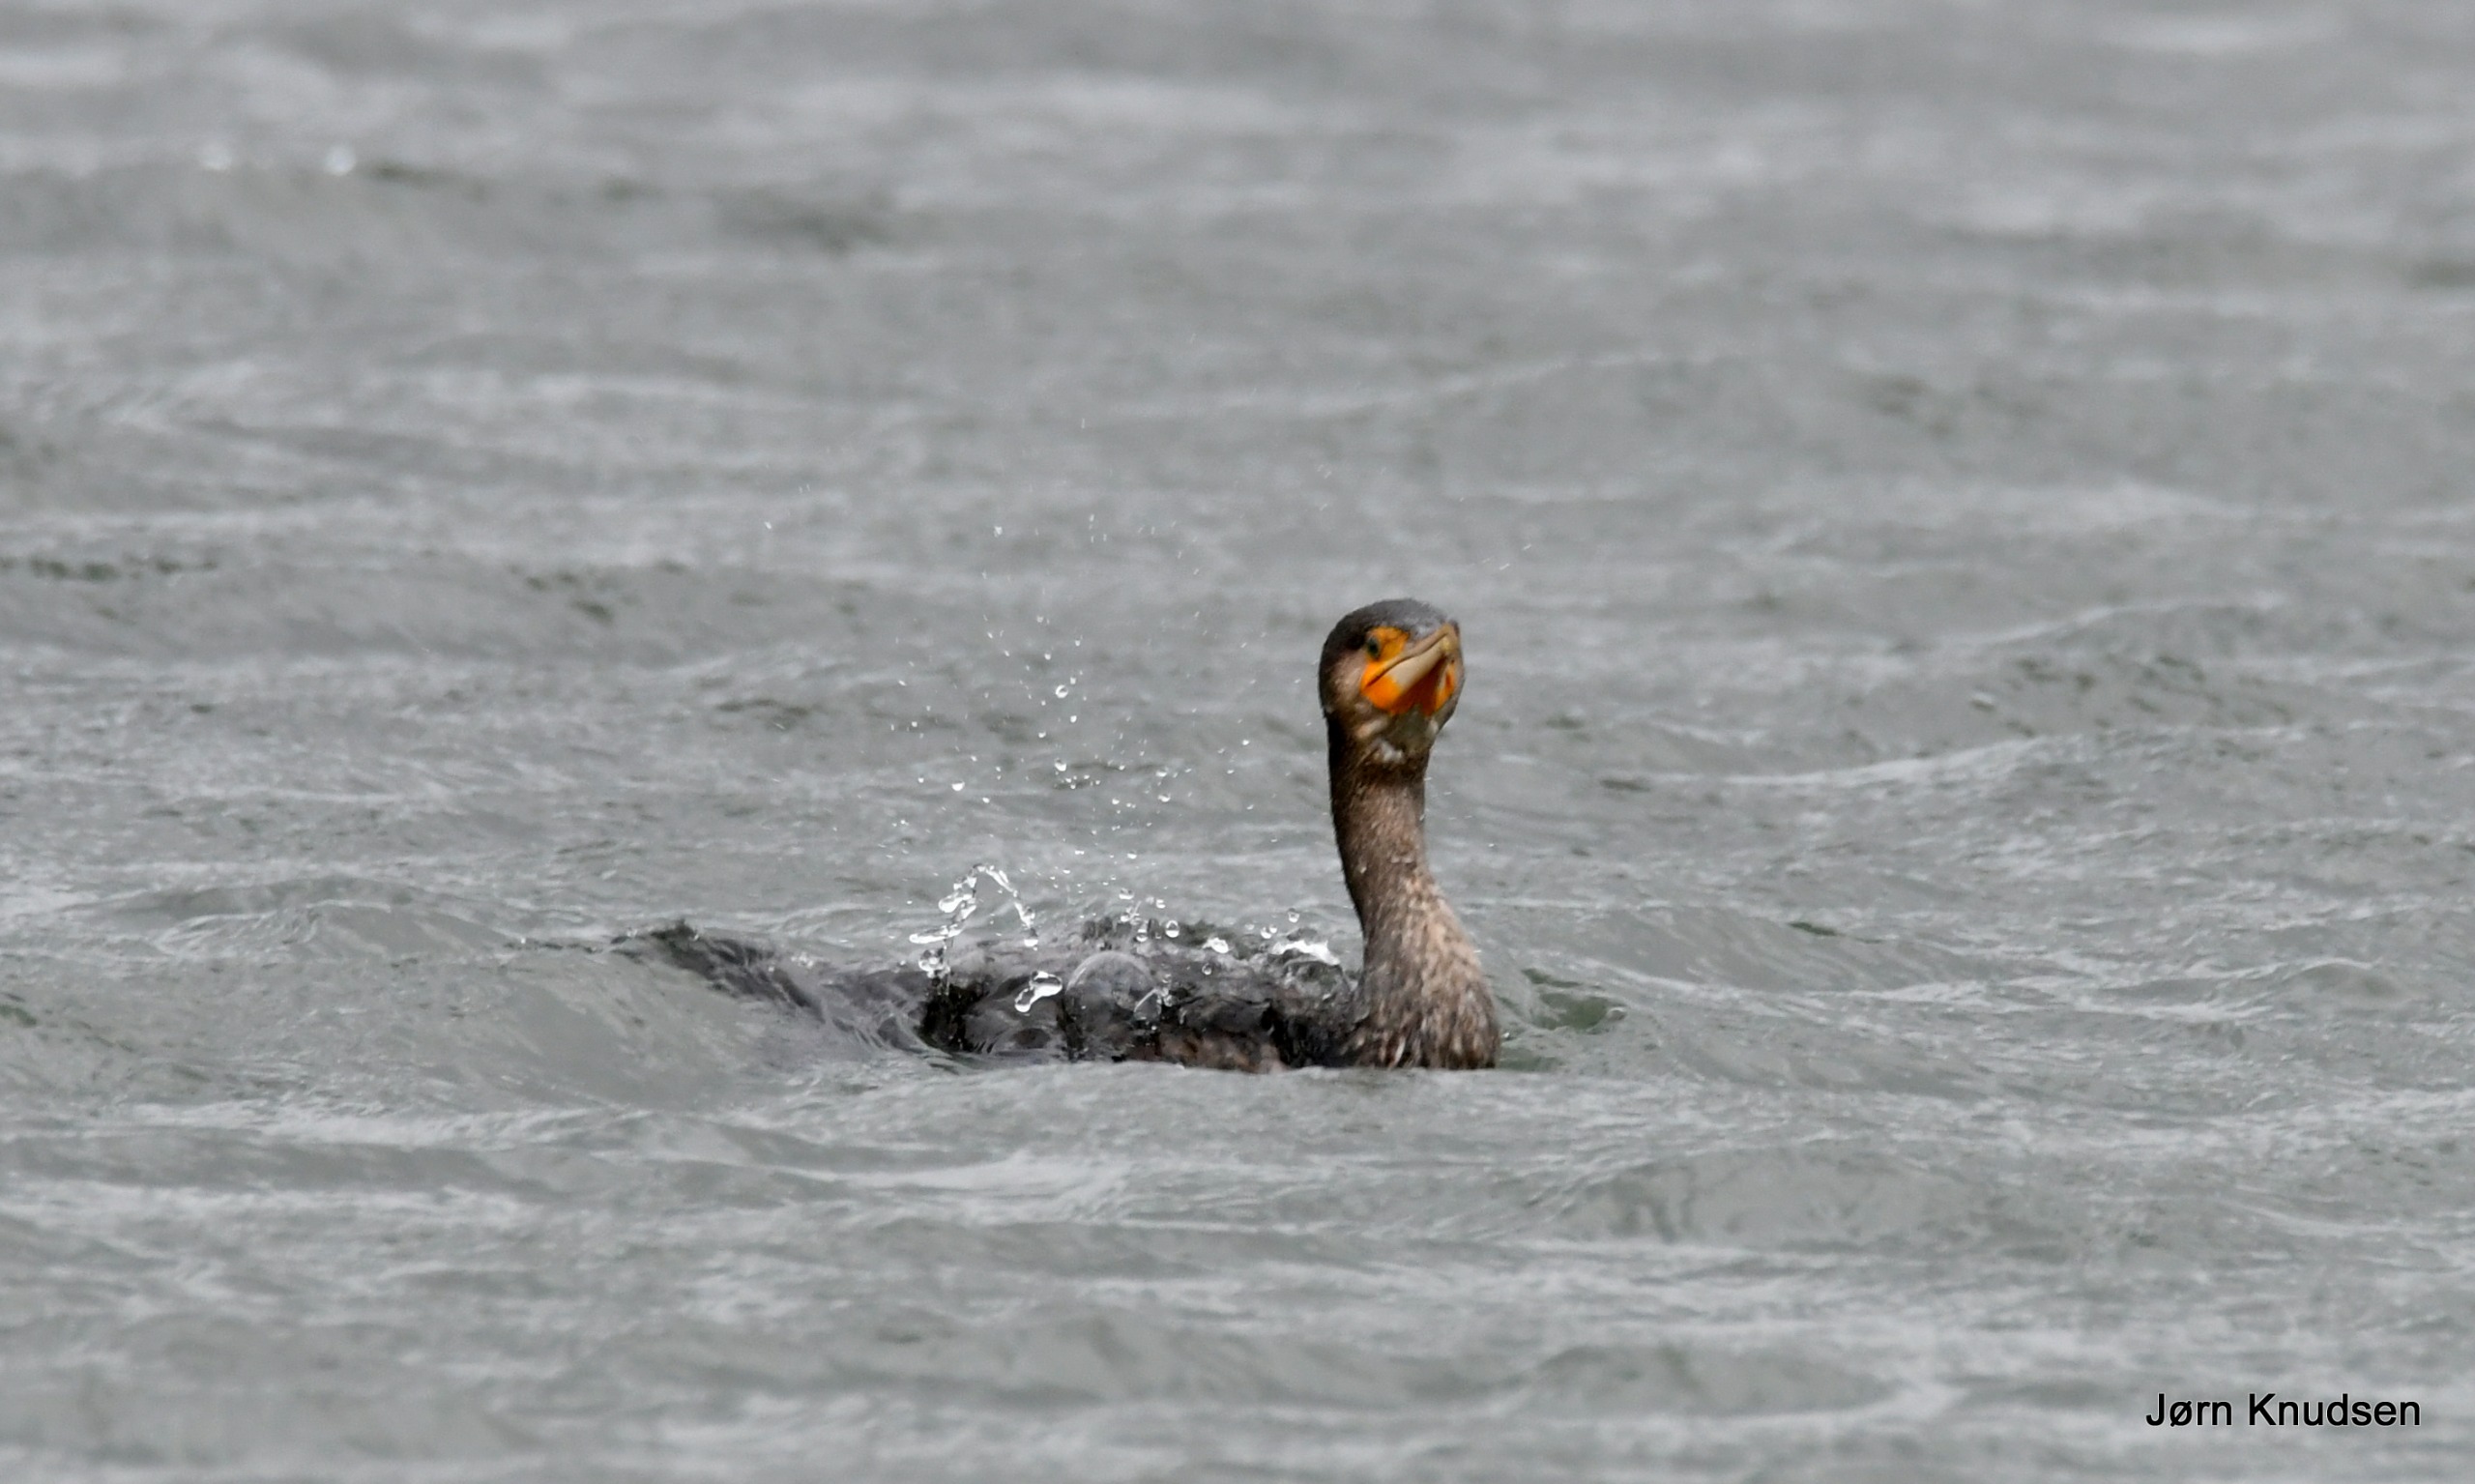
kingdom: Animalia
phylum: Chordata
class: Aves
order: Suliformes
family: Phalacrocoracidae
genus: Phalacrocorax
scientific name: Phalacrocorax carbo
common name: Skarv
